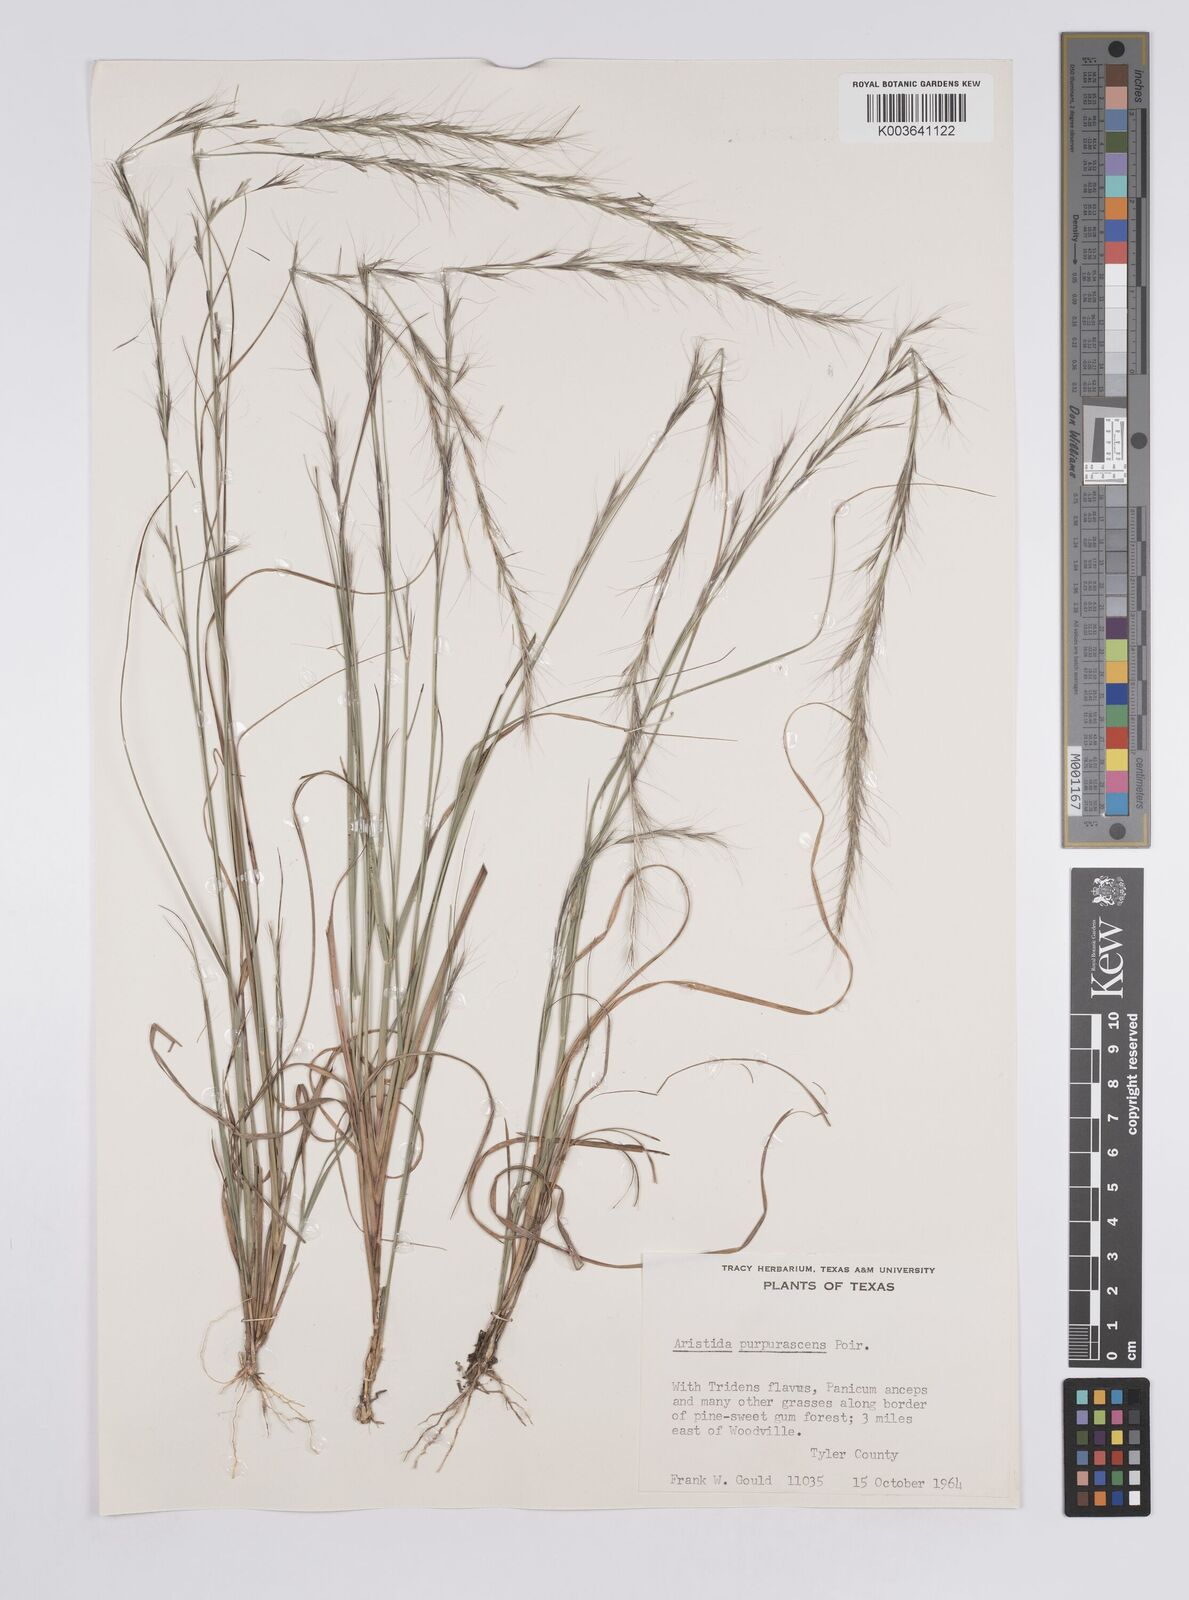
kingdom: Plantae
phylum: Tracheophyta
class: Liliopsida
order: Poales
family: Poaceae
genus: Aristida
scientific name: Aristida purpurascens
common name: Arrow-feather
